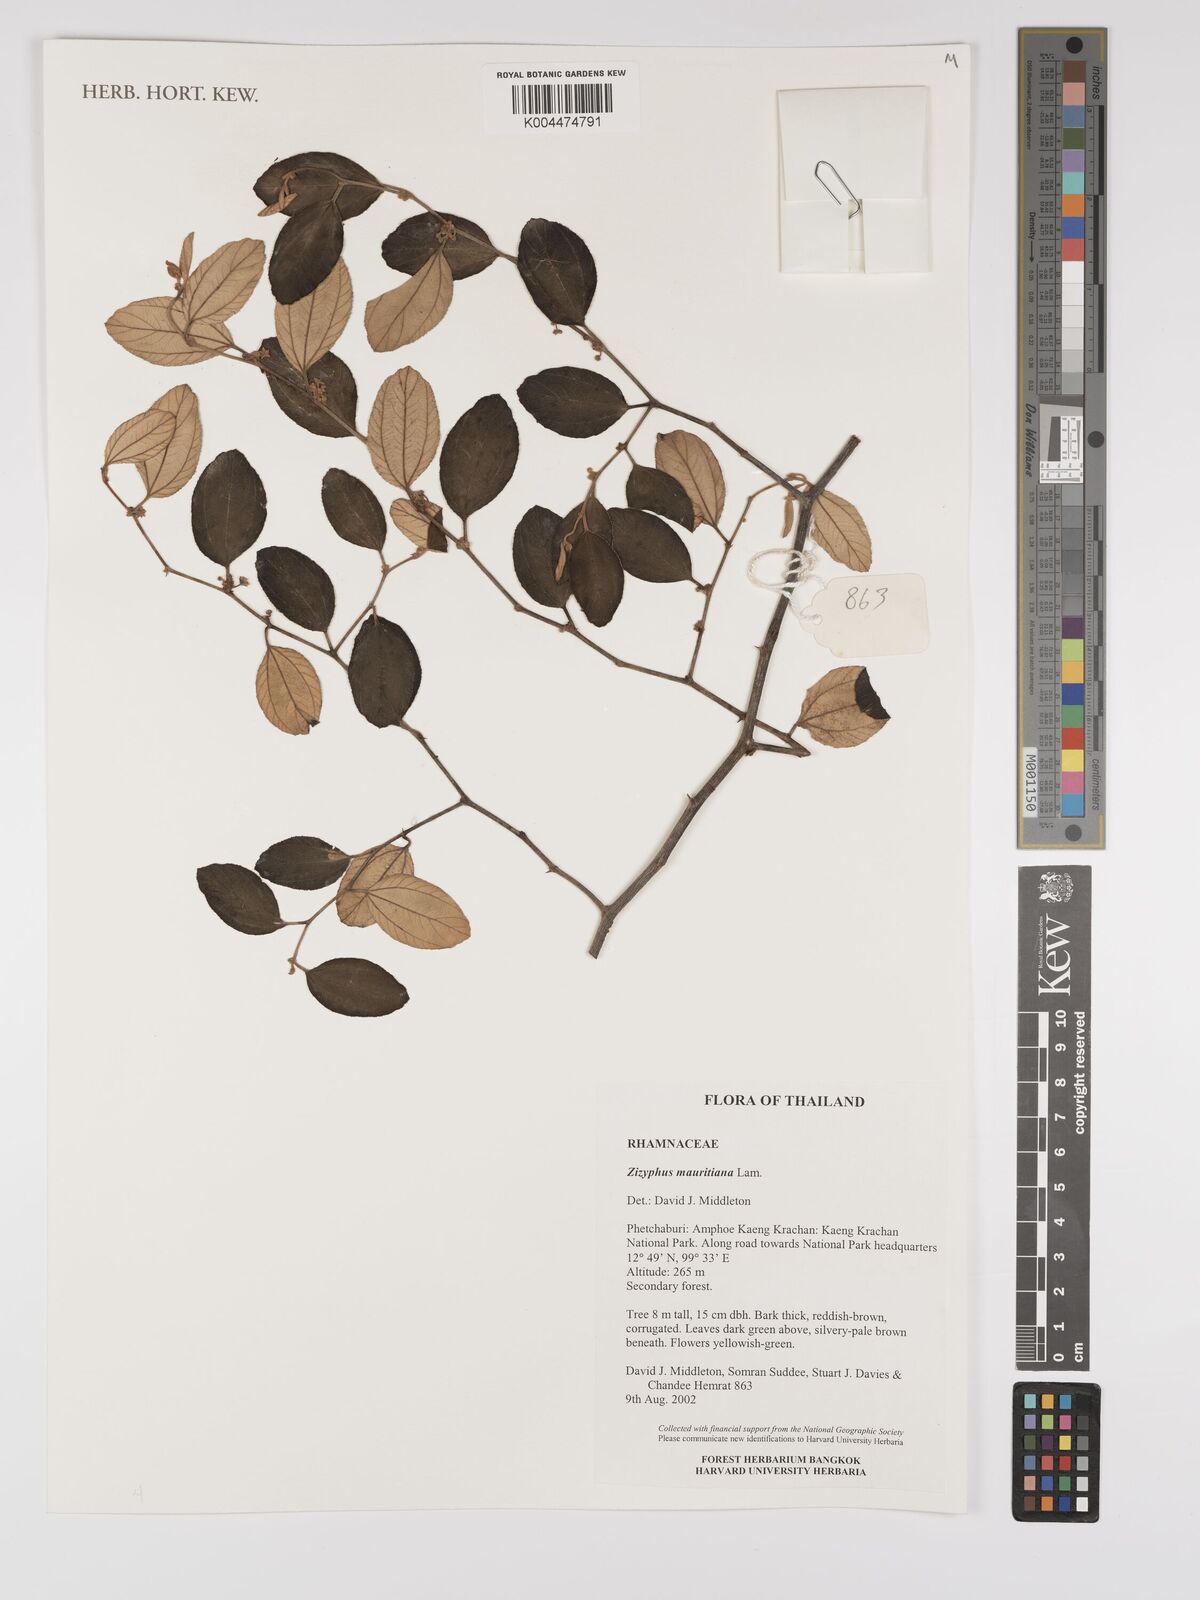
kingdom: Plantae
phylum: Tracheophyta
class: Magnoliopsida
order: Rosales
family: Rhamnaceae
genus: Ziziphus
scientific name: Ziziphus mauritiana
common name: Indian jujube
